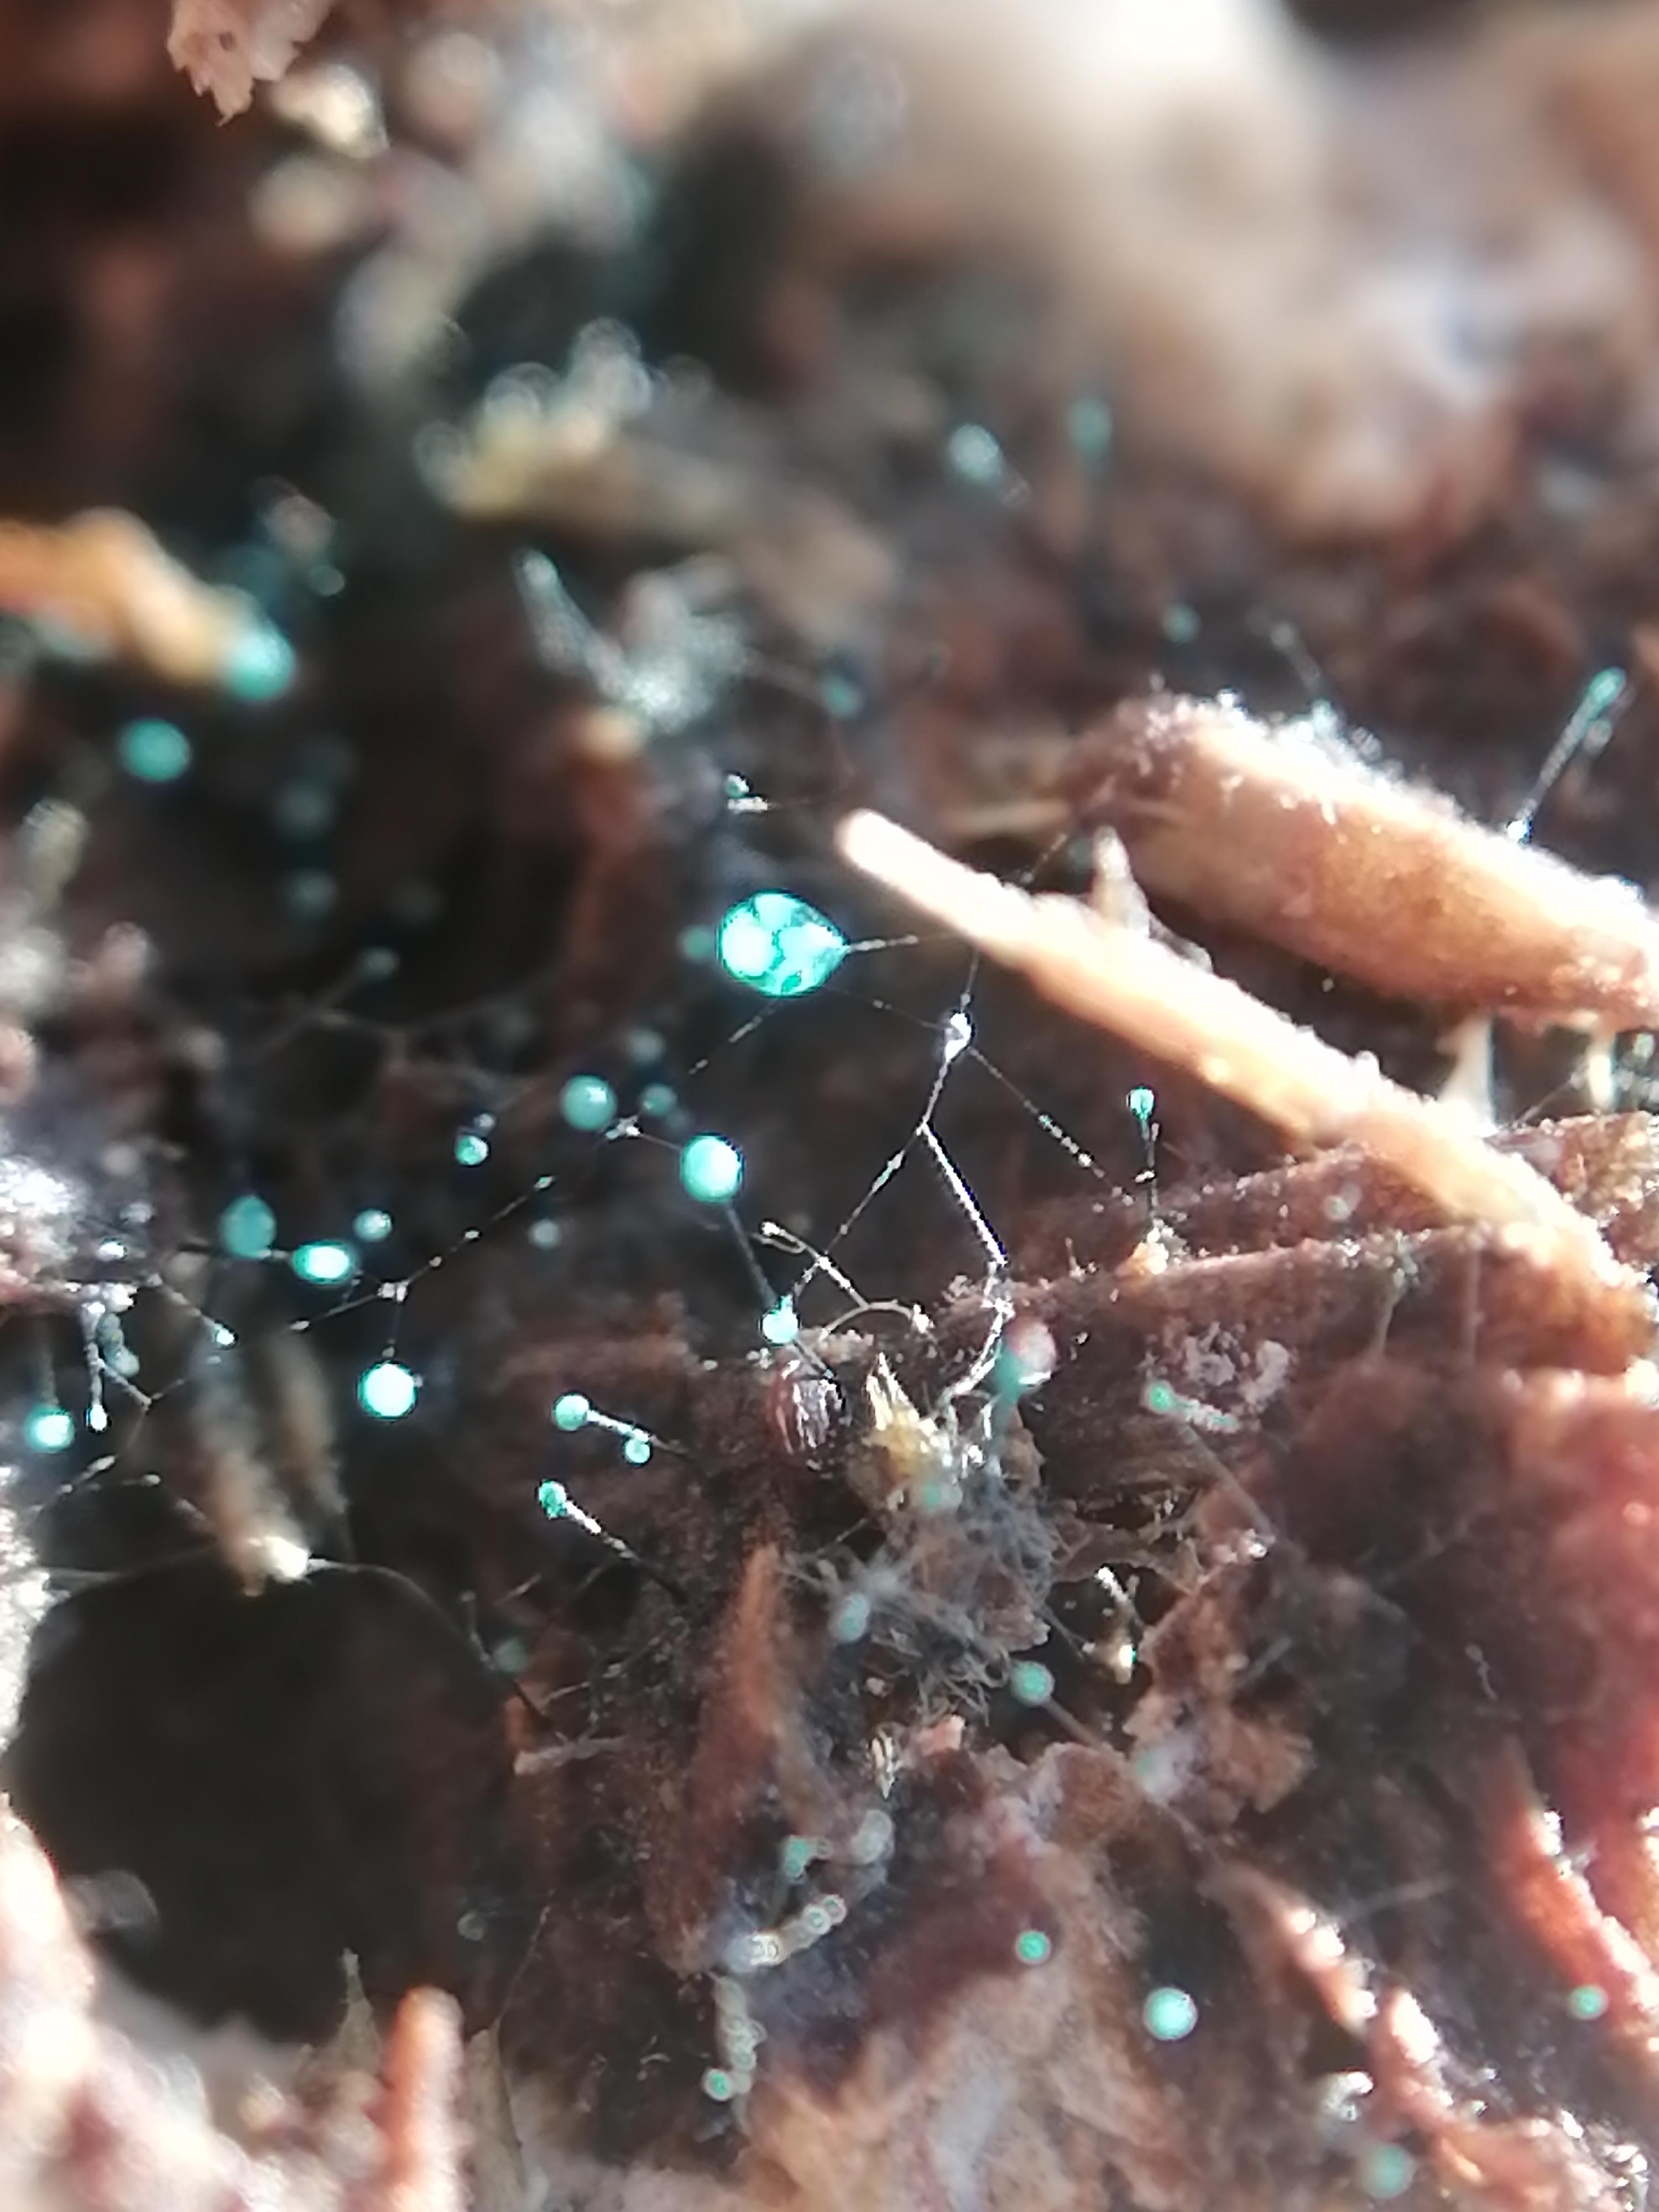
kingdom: Fungi
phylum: Ascomycota
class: Leotiomycetes
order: Leotiales
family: Tympanidaceae
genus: Dendrostilbella
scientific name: Dendrostilbella smaragdina
